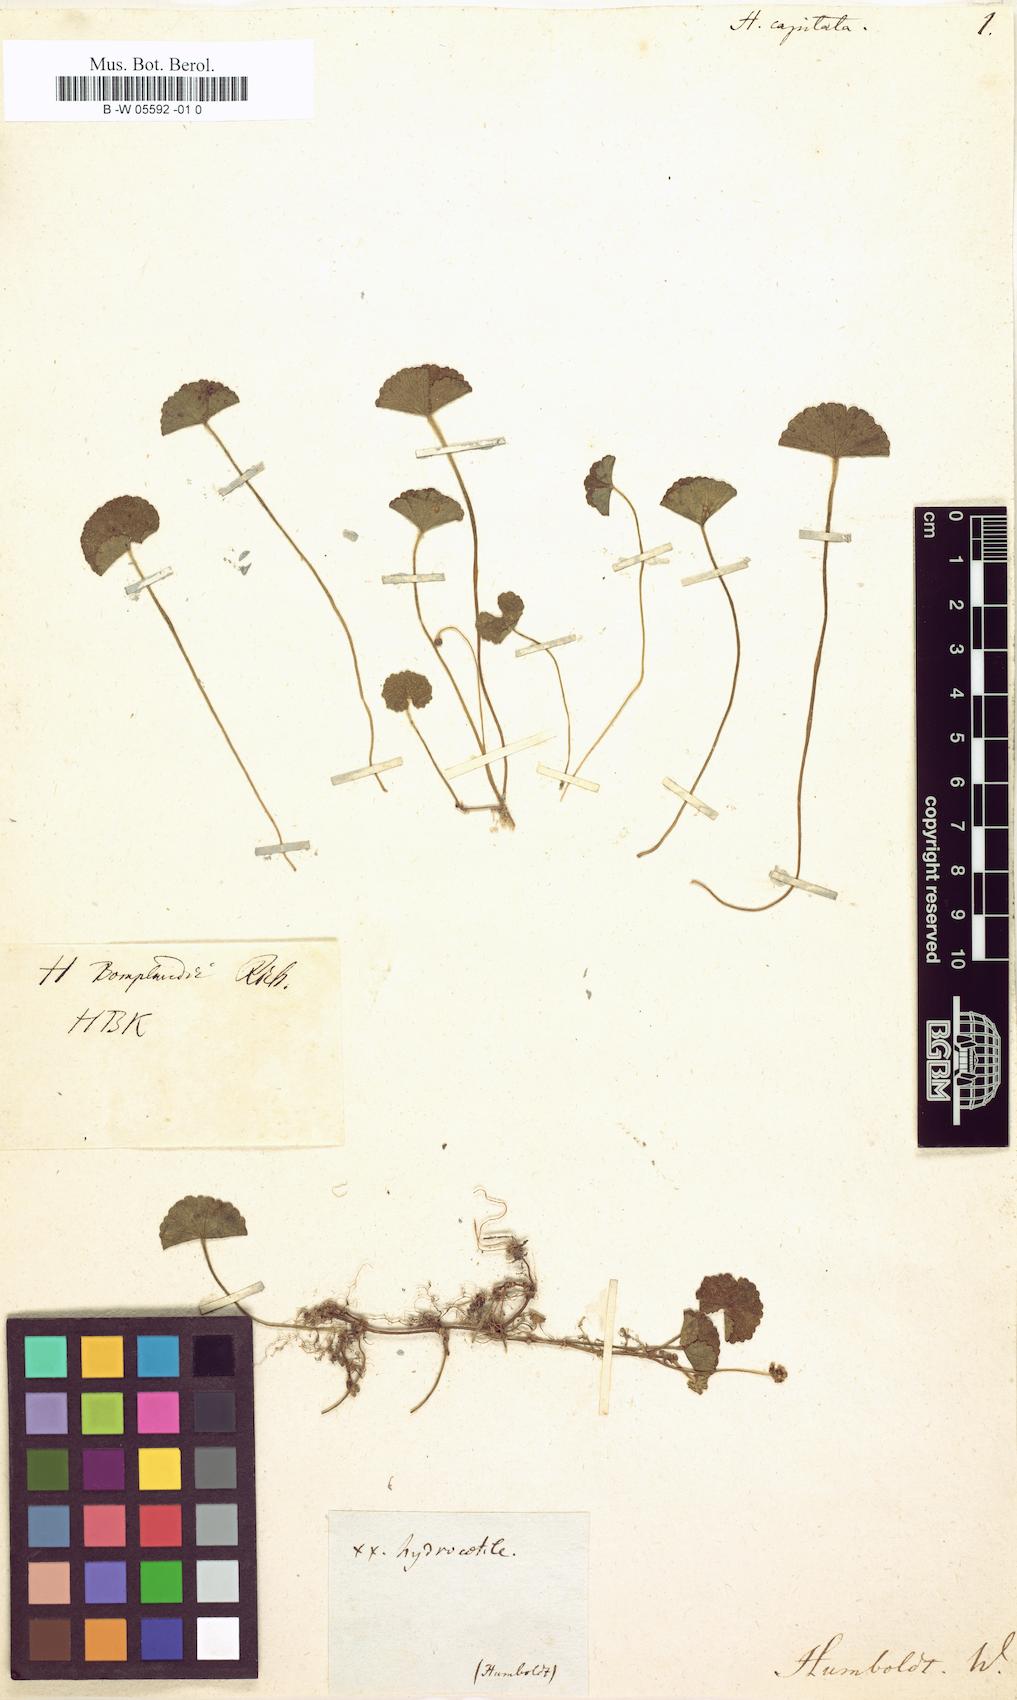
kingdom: Plantae
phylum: Tracheophyta
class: Magnoliopsida
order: Apiales
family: Araliaceae
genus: Hydrocotyle
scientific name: Hydrocotyle bonplandii
